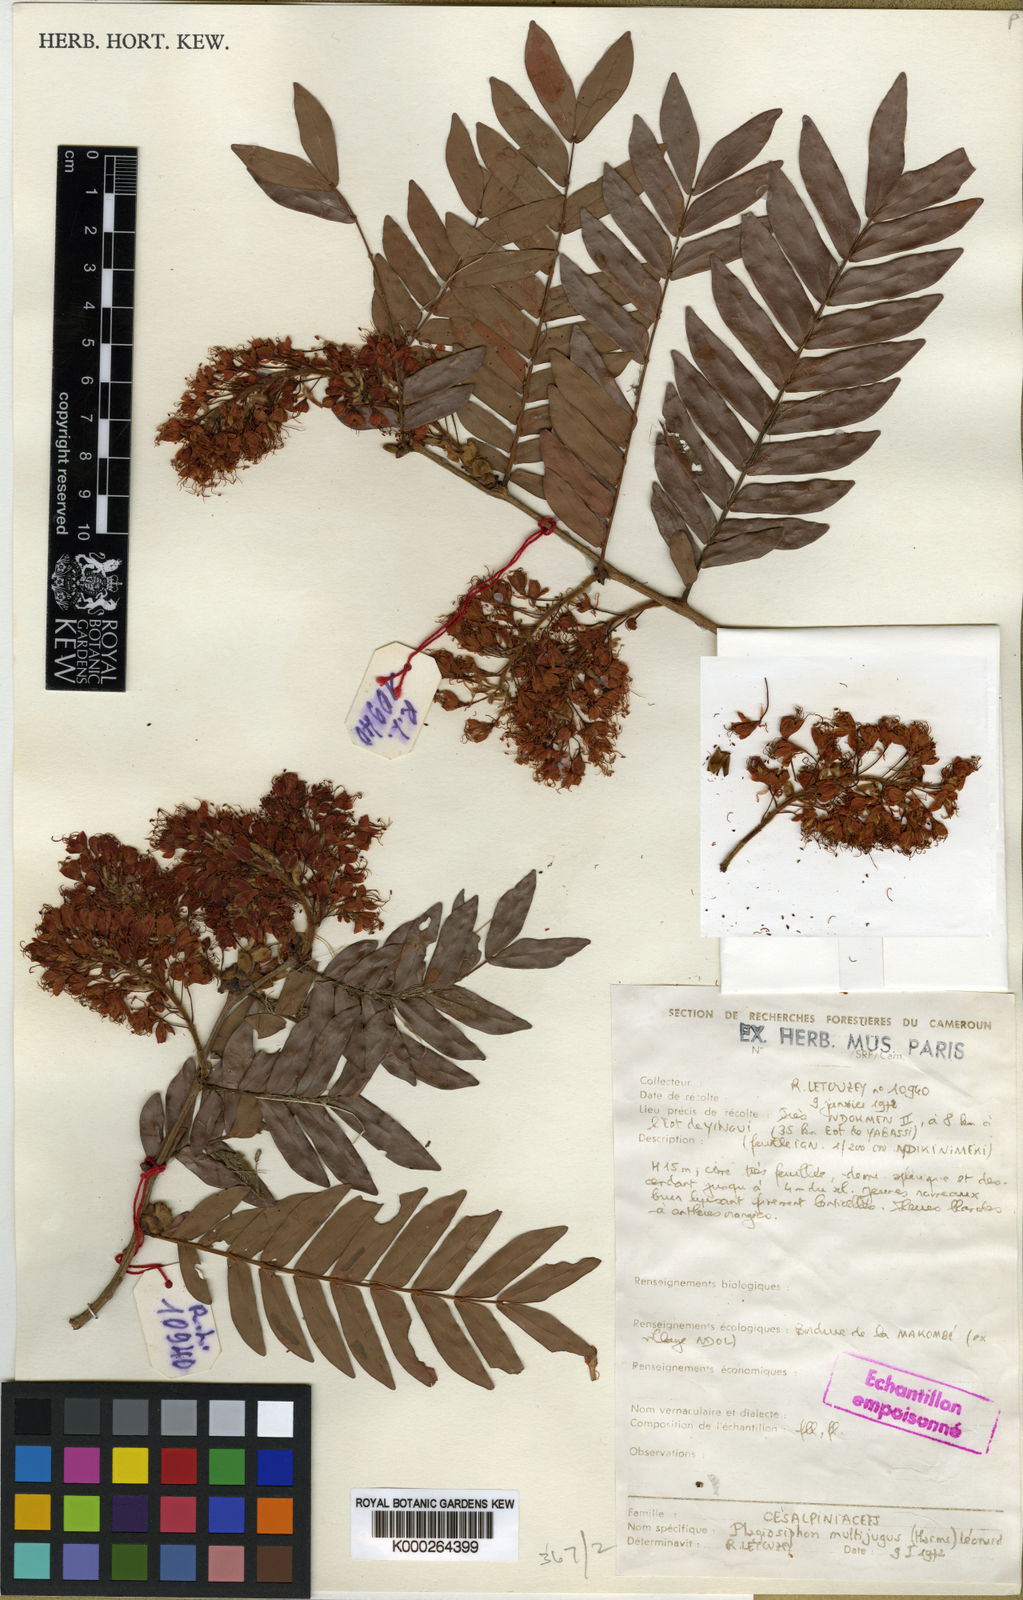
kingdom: Plantae
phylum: Tracheophyta
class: Magnoliopsida
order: Fabales
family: Fabaceae
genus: Talbotiella
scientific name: Talbotiella ebo
